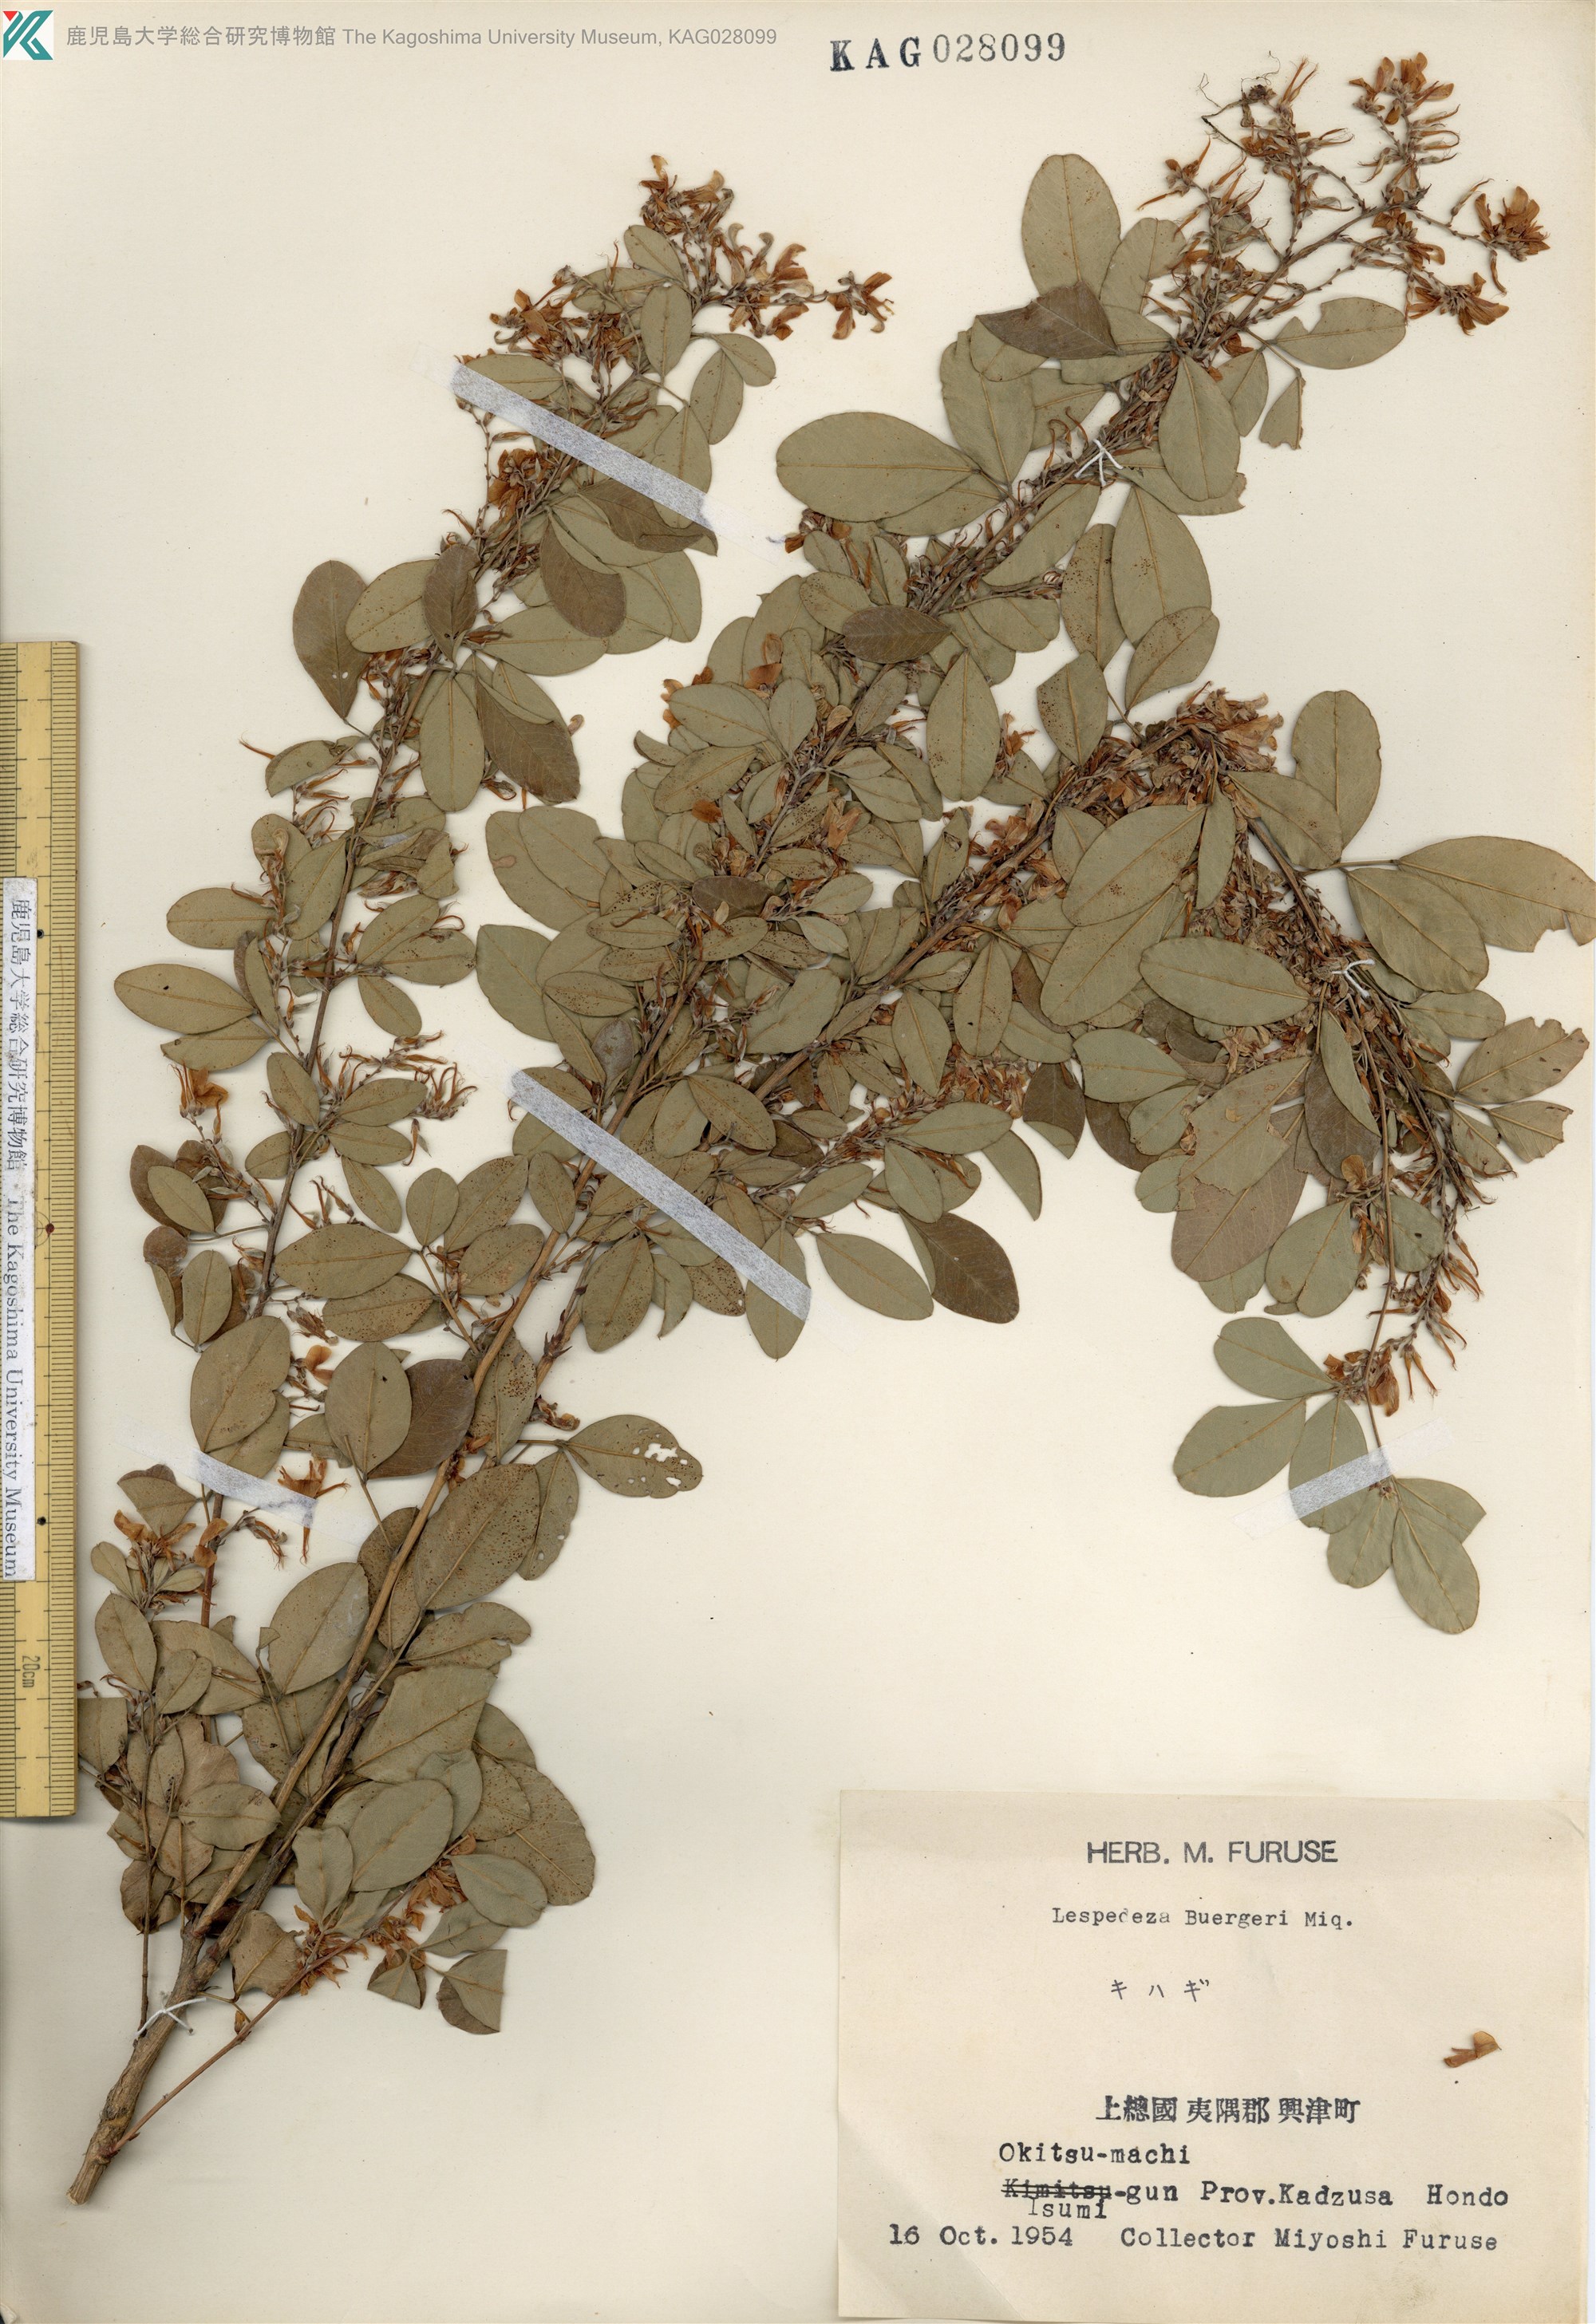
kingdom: Plantae
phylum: Tracheophyta
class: Magnoliopsida
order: Fabales
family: Fabaceae
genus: Lespedeza
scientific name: Lespedeza buergeri
